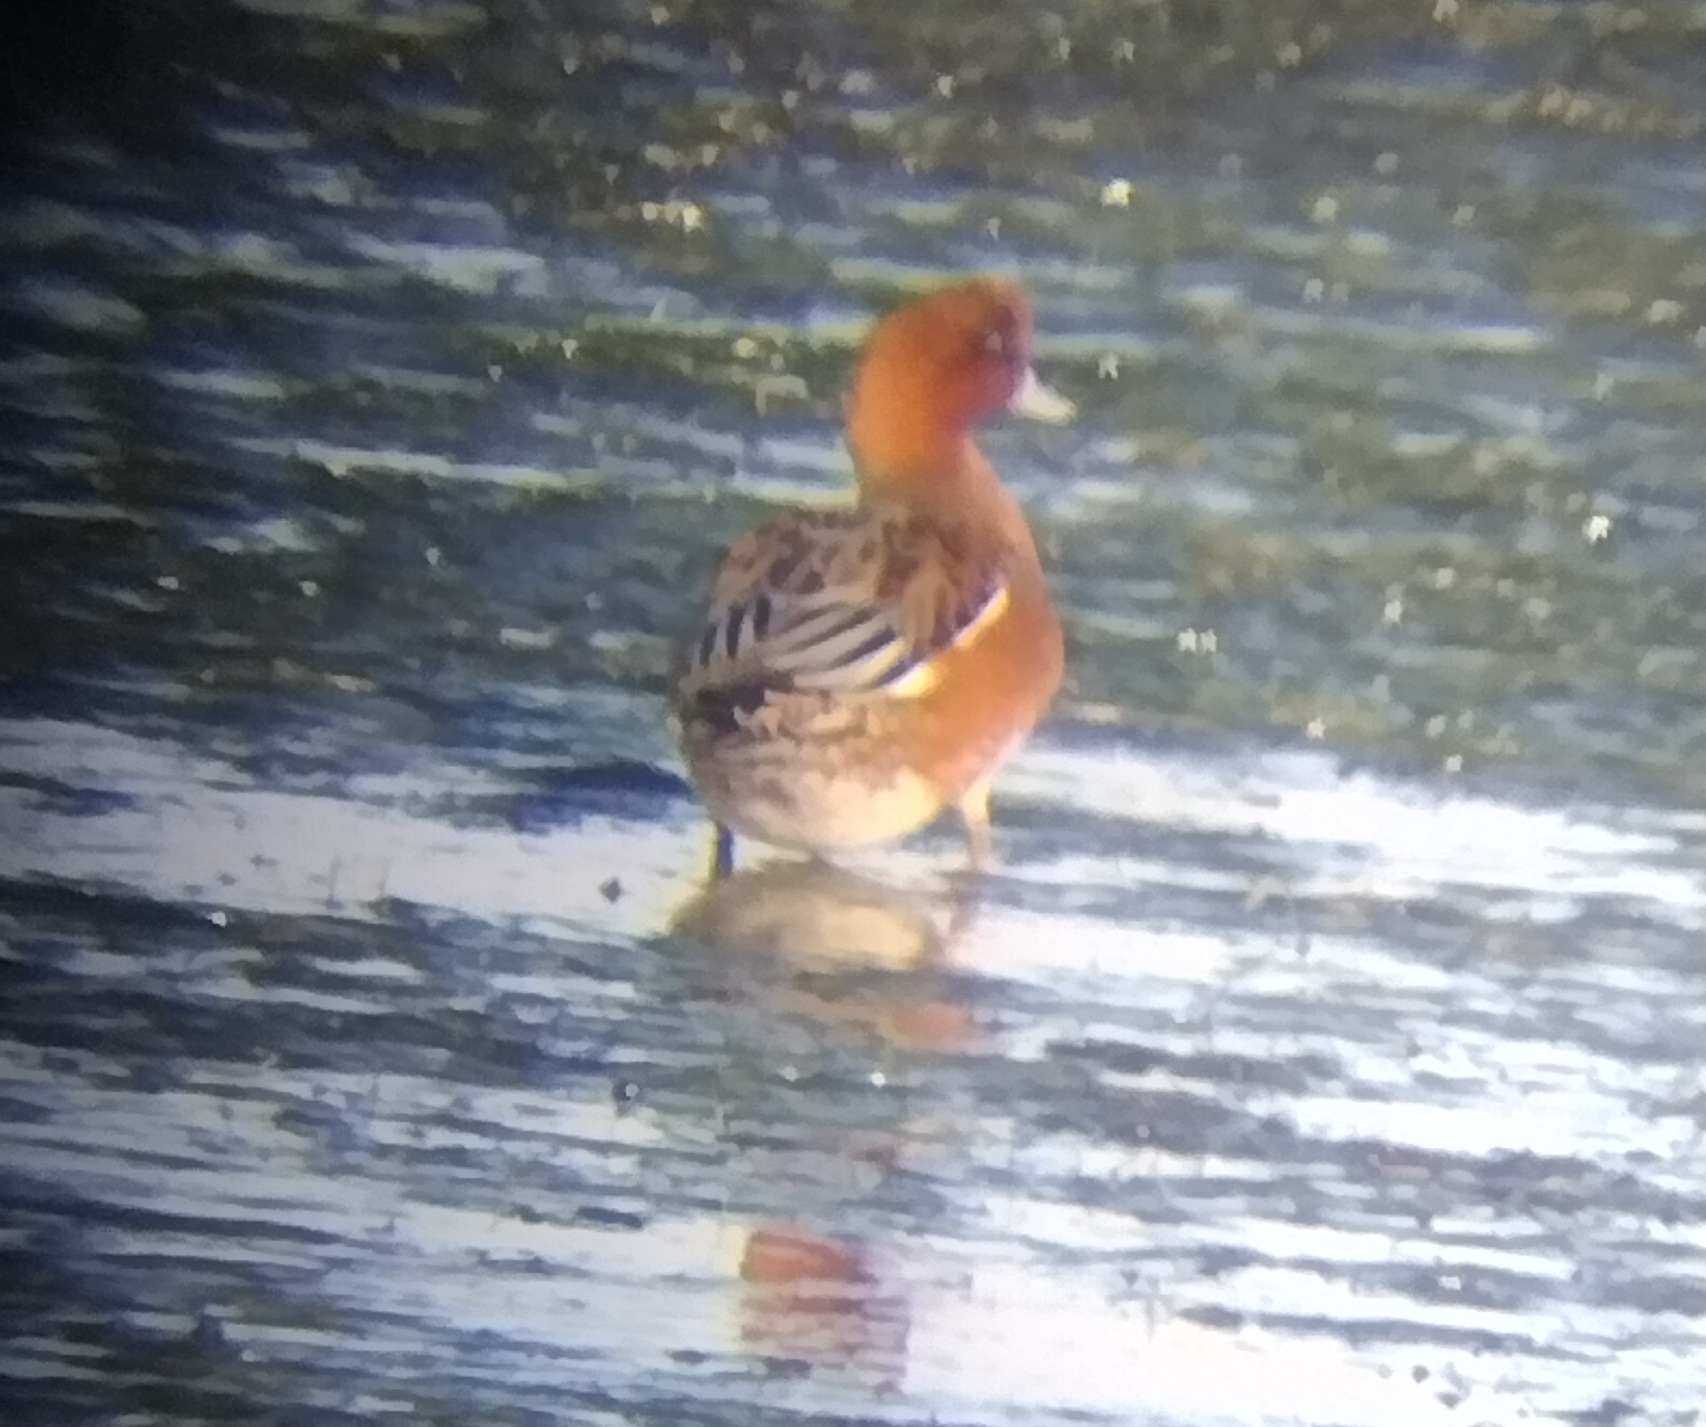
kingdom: Animalia
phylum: Chordata
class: Aves
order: Anseriformes
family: Anatidae
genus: Mareca
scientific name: Mareca penelope
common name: Pibeand
